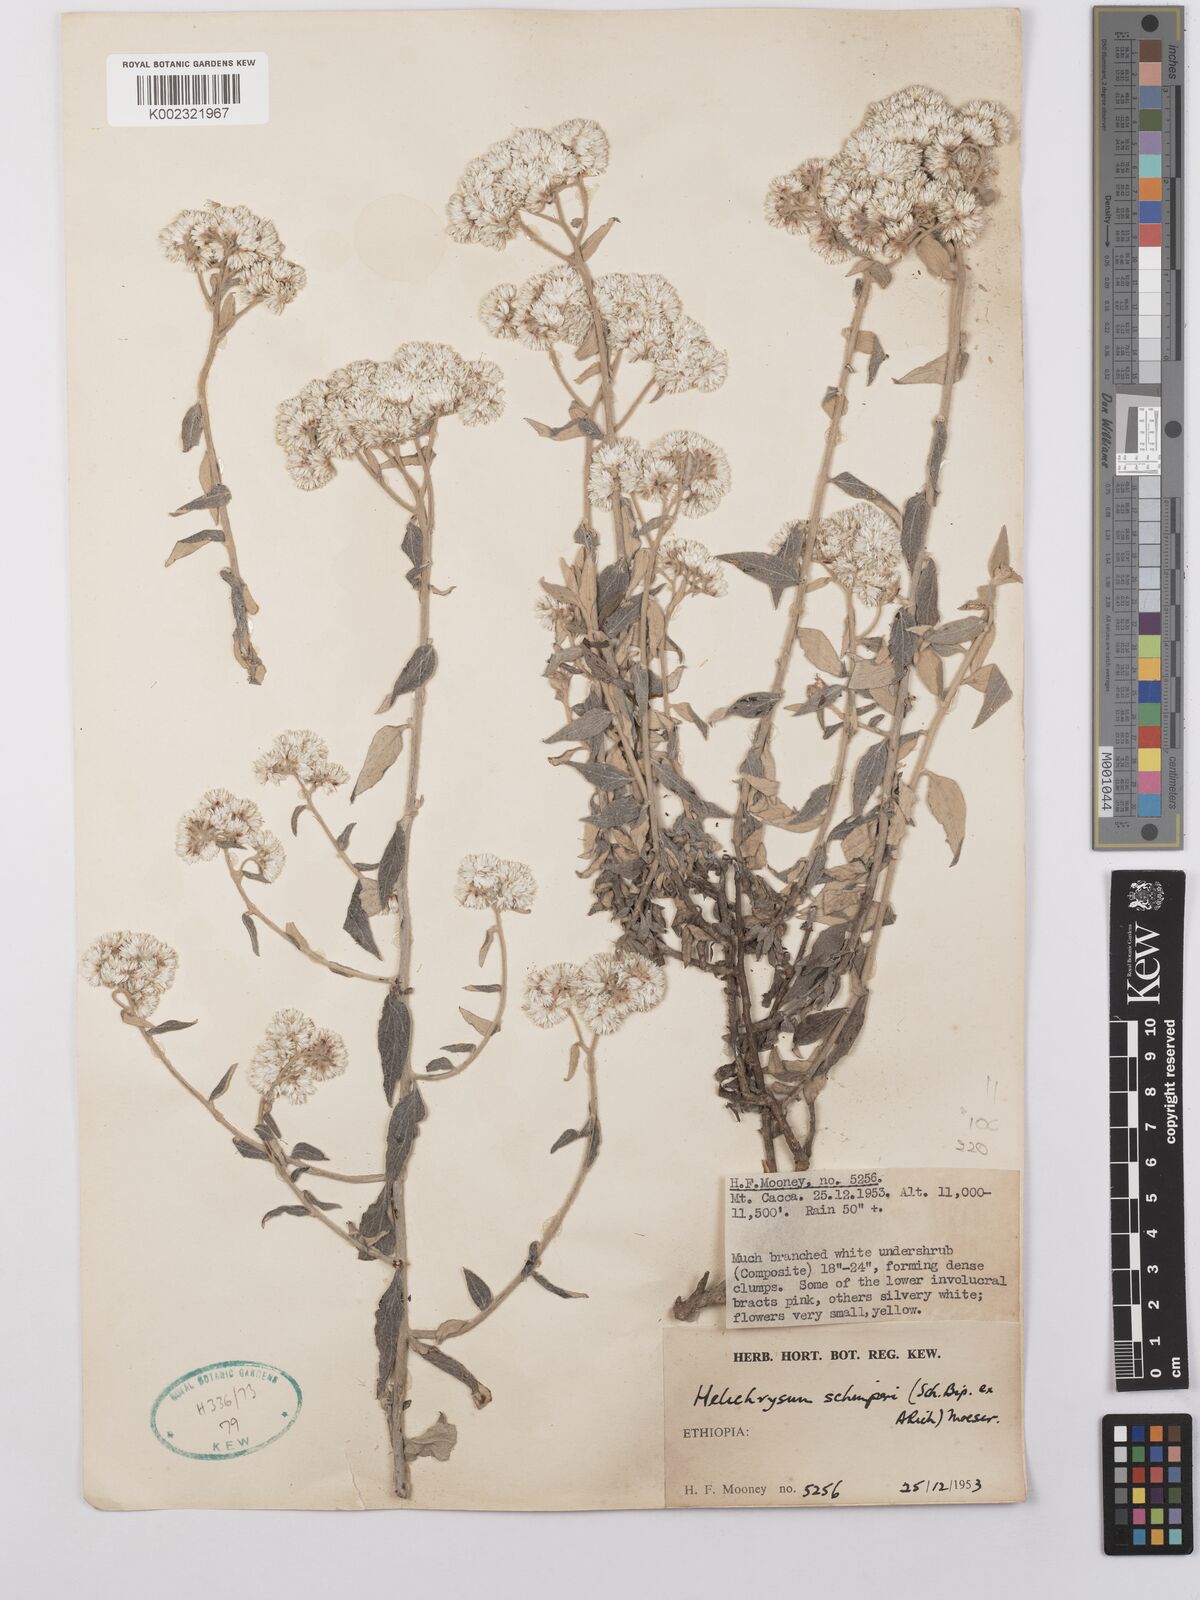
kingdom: Plantae
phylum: Tracheophyta
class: Magnoliopsida
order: Asterales
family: Asteraceae
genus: Helichrysum
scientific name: Helichrysum schimperi
